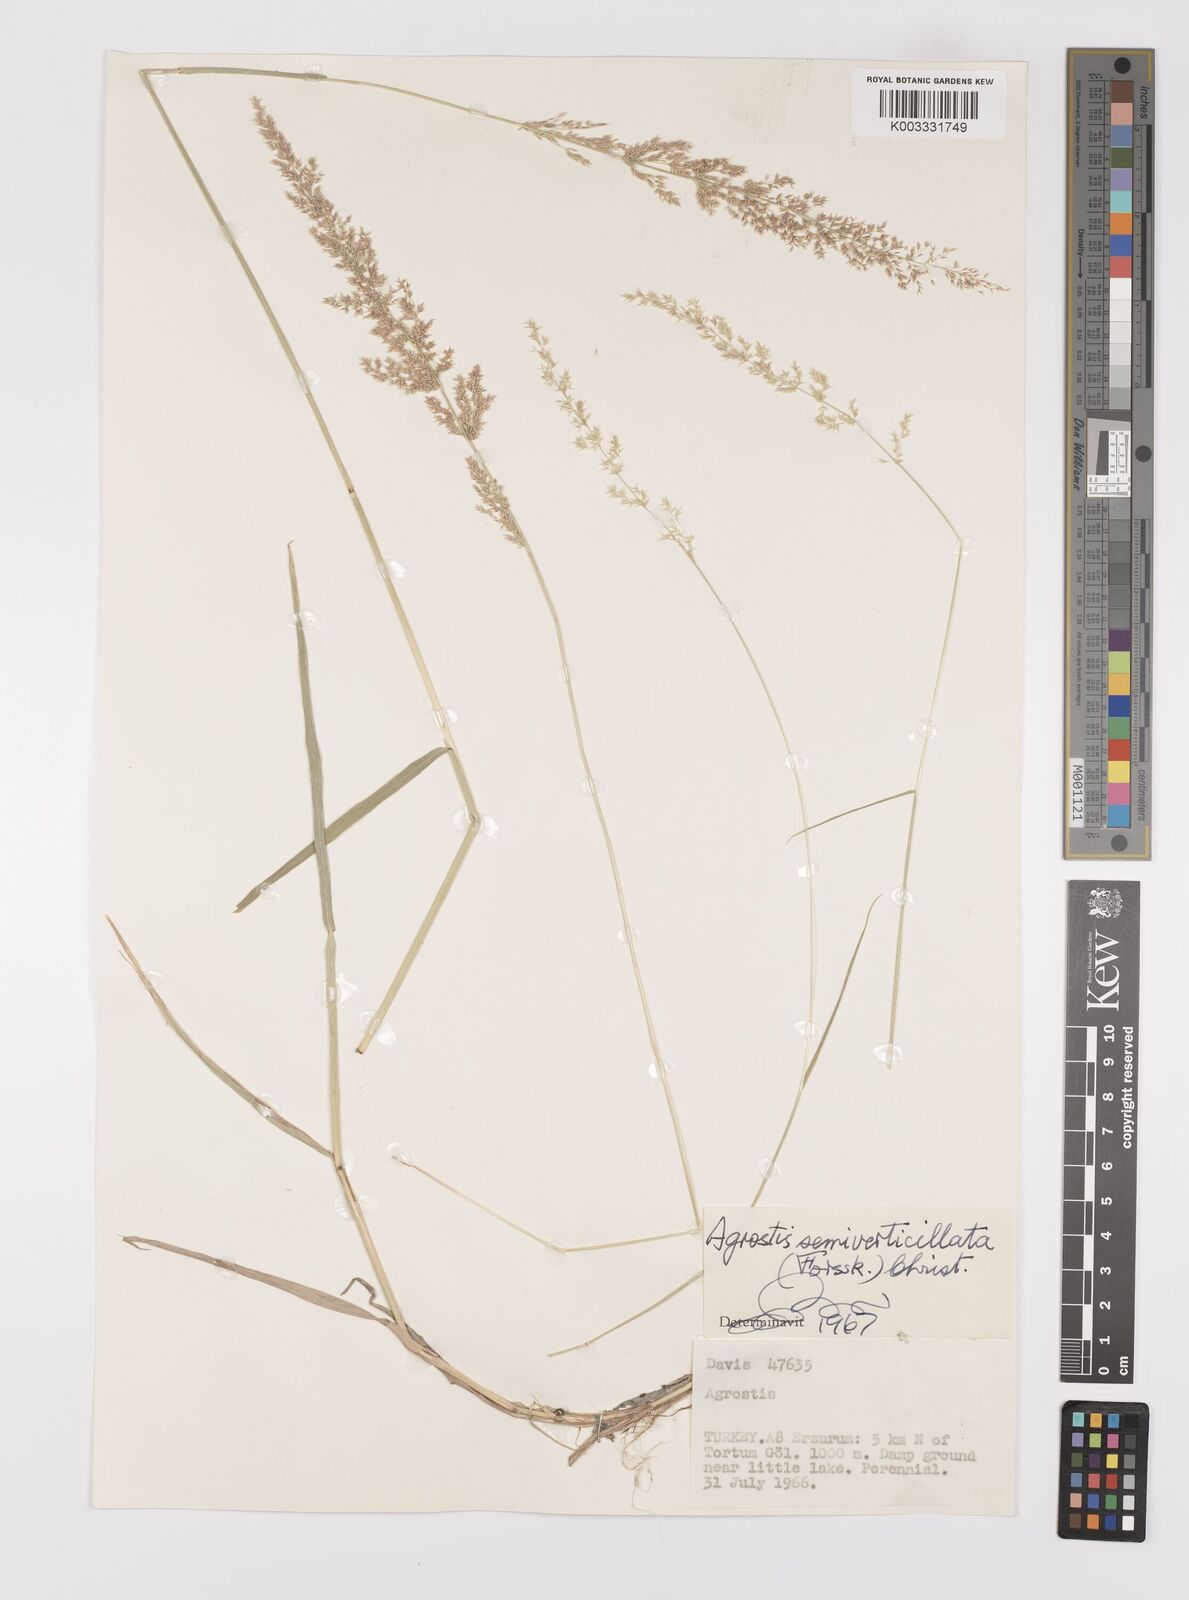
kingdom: Plantae
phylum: Tracheophyta
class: Liliopsida
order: Poales
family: Poaceae
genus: Polypogon
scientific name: Polypogon viridis
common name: Water bent
